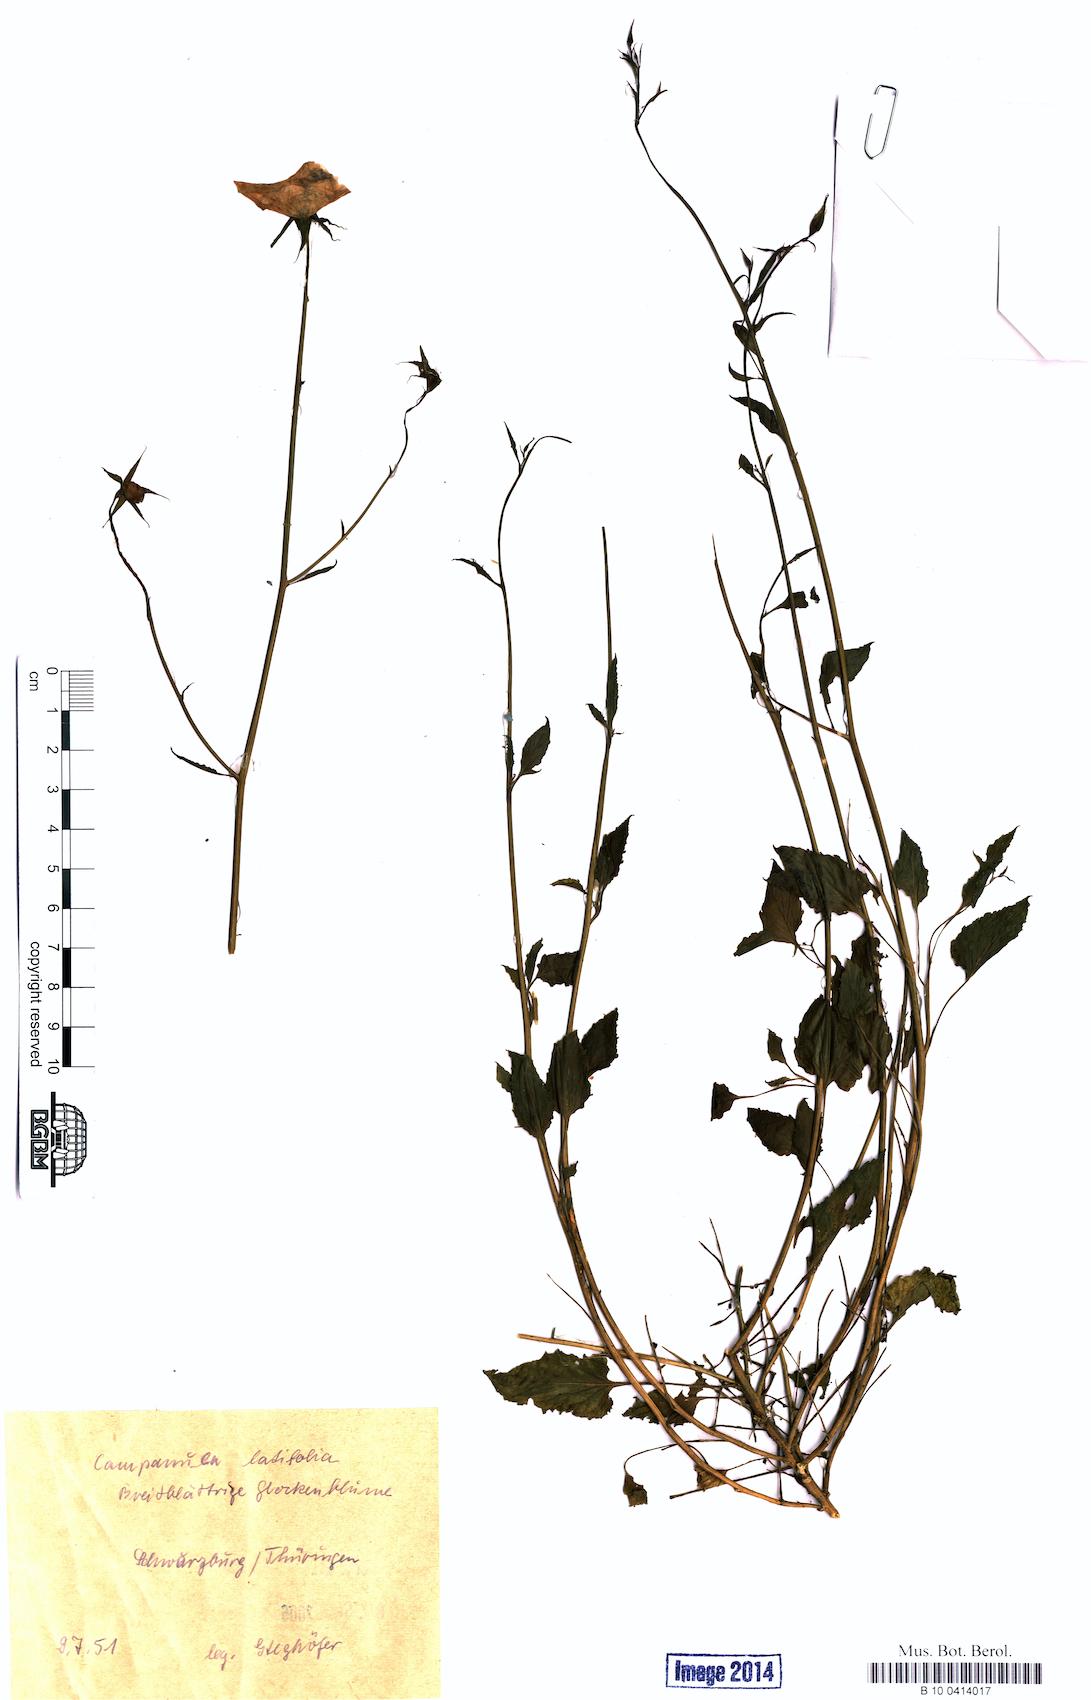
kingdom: Plantae
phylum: Tracheophyta
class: Magnoliopsida
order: Asterales
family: Campanulaceae
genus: Campanula
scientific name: Campanula latifolia
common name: Giant bellflower
